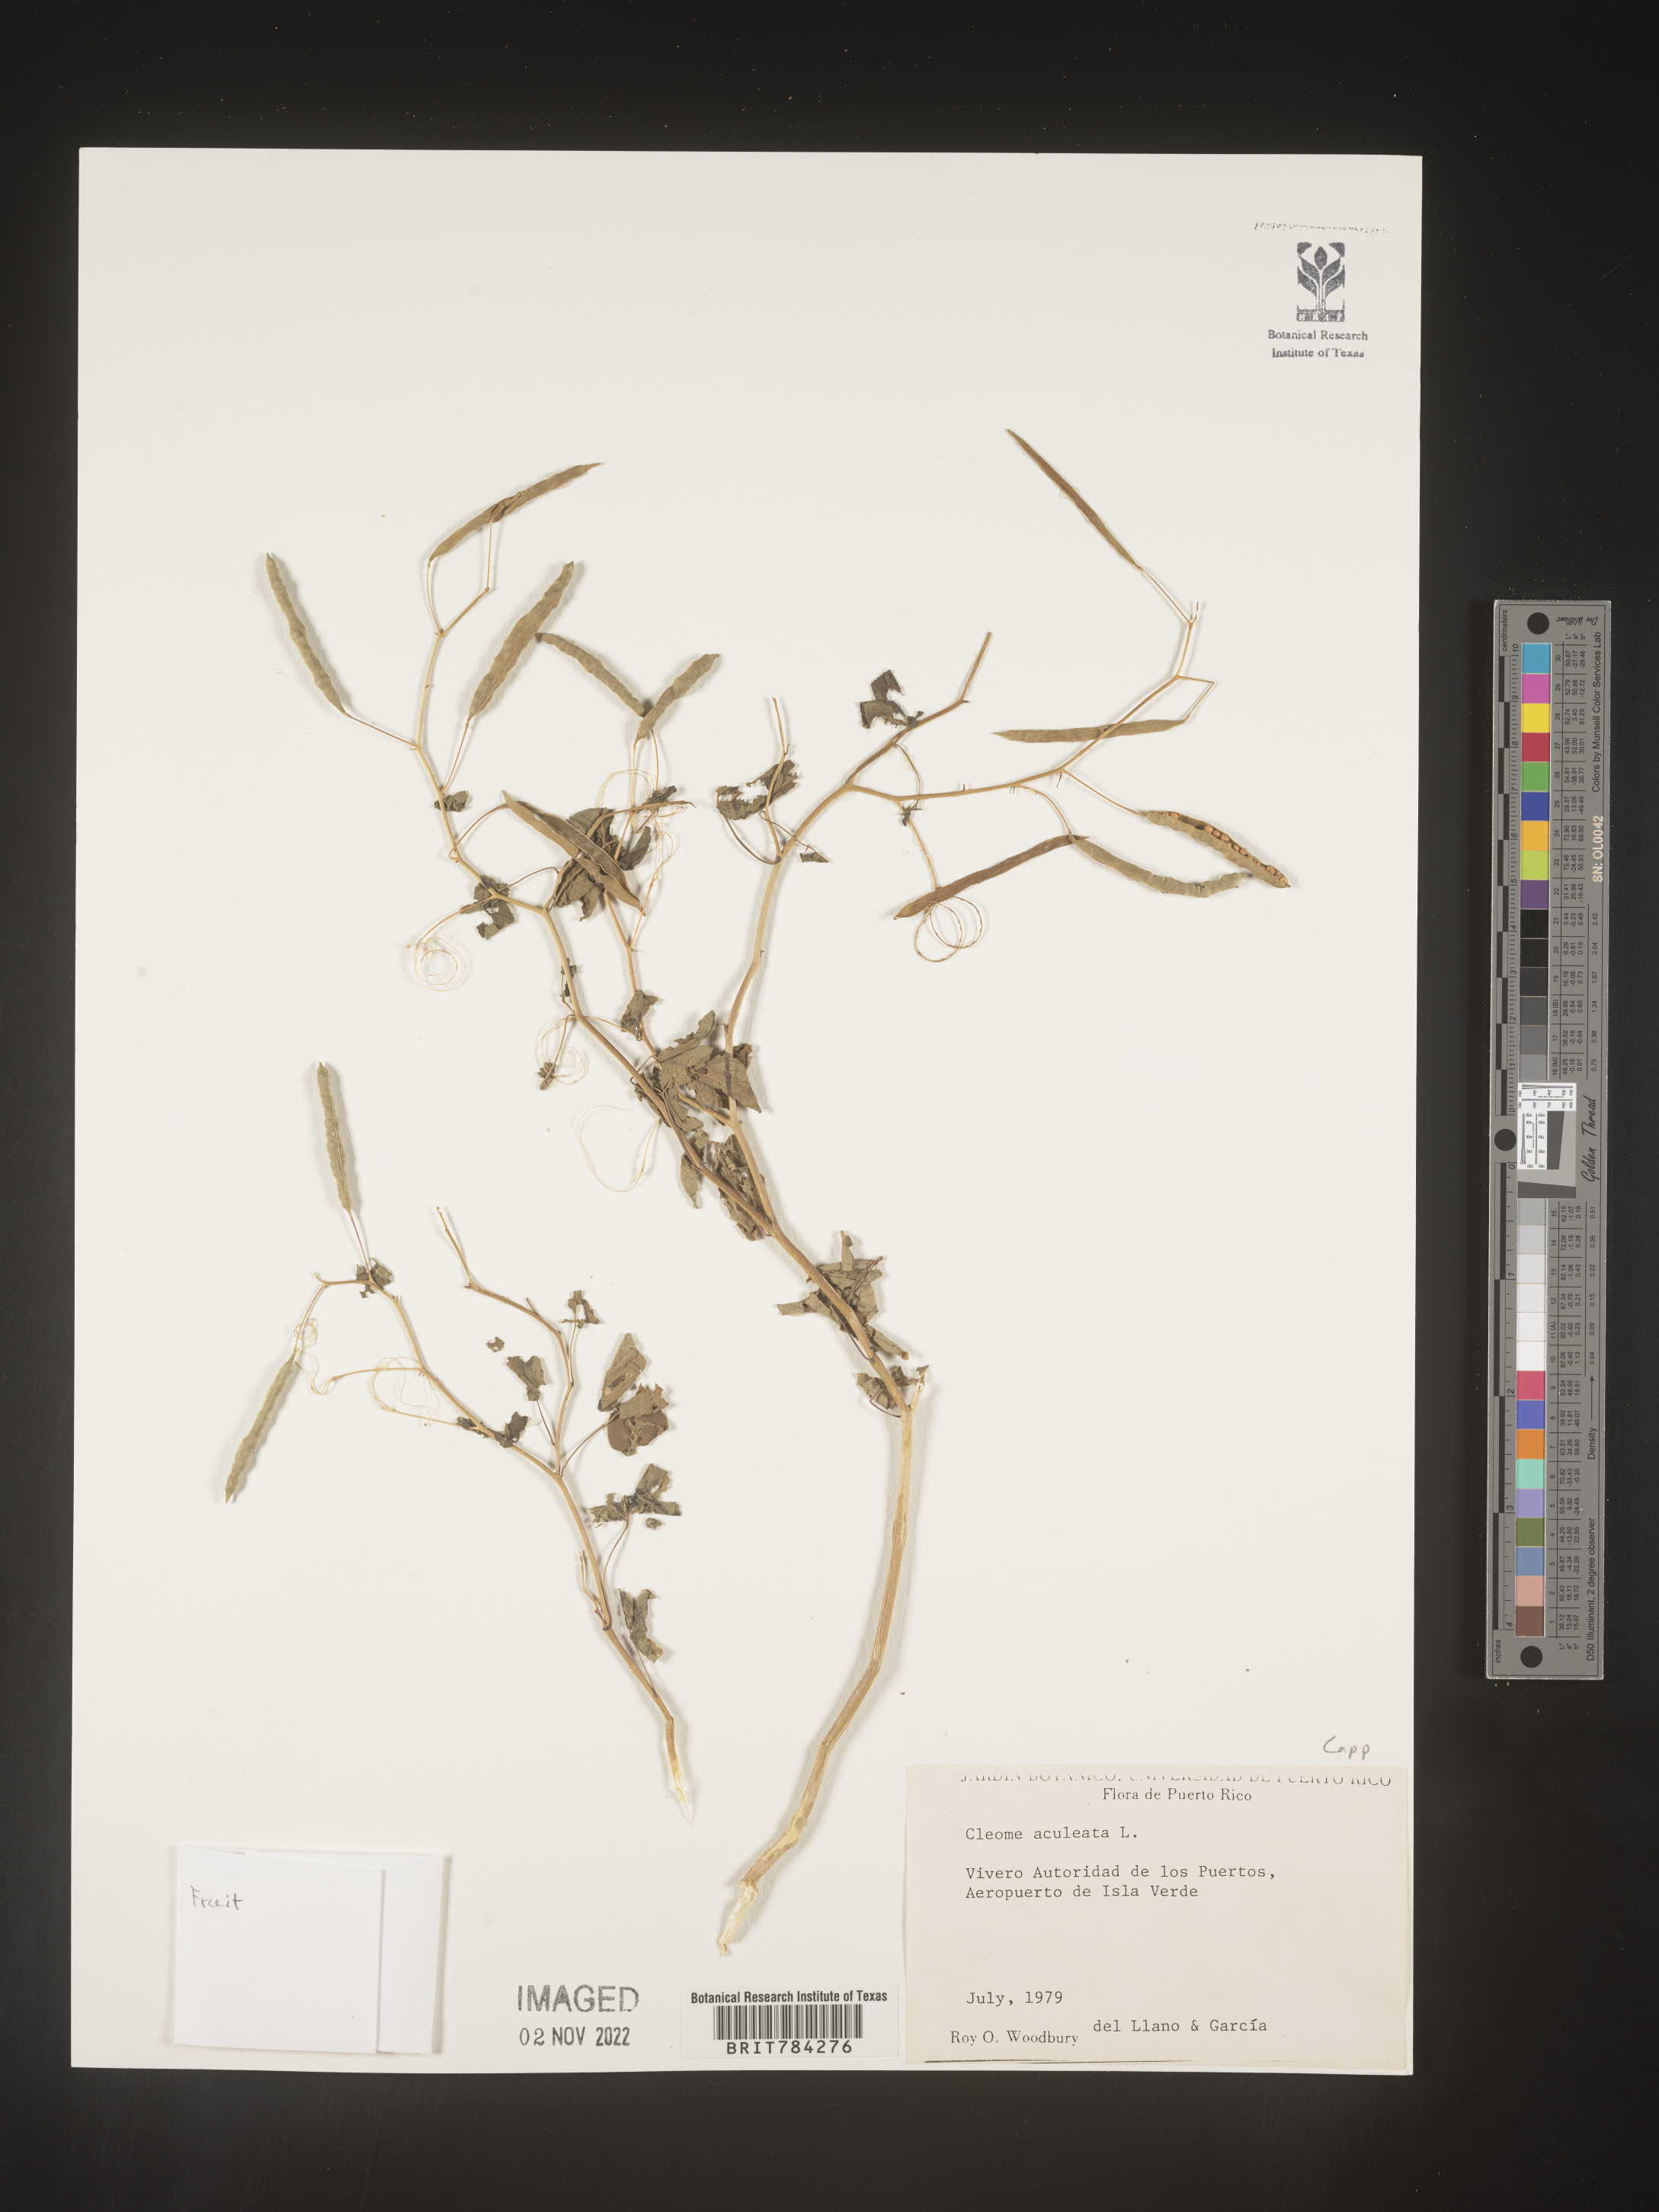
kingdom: Plantae
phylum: Tracheophyta
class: Magnoliopsida
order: Brassicales
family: Cleomaceae
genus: Cleome
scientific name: Cleome
